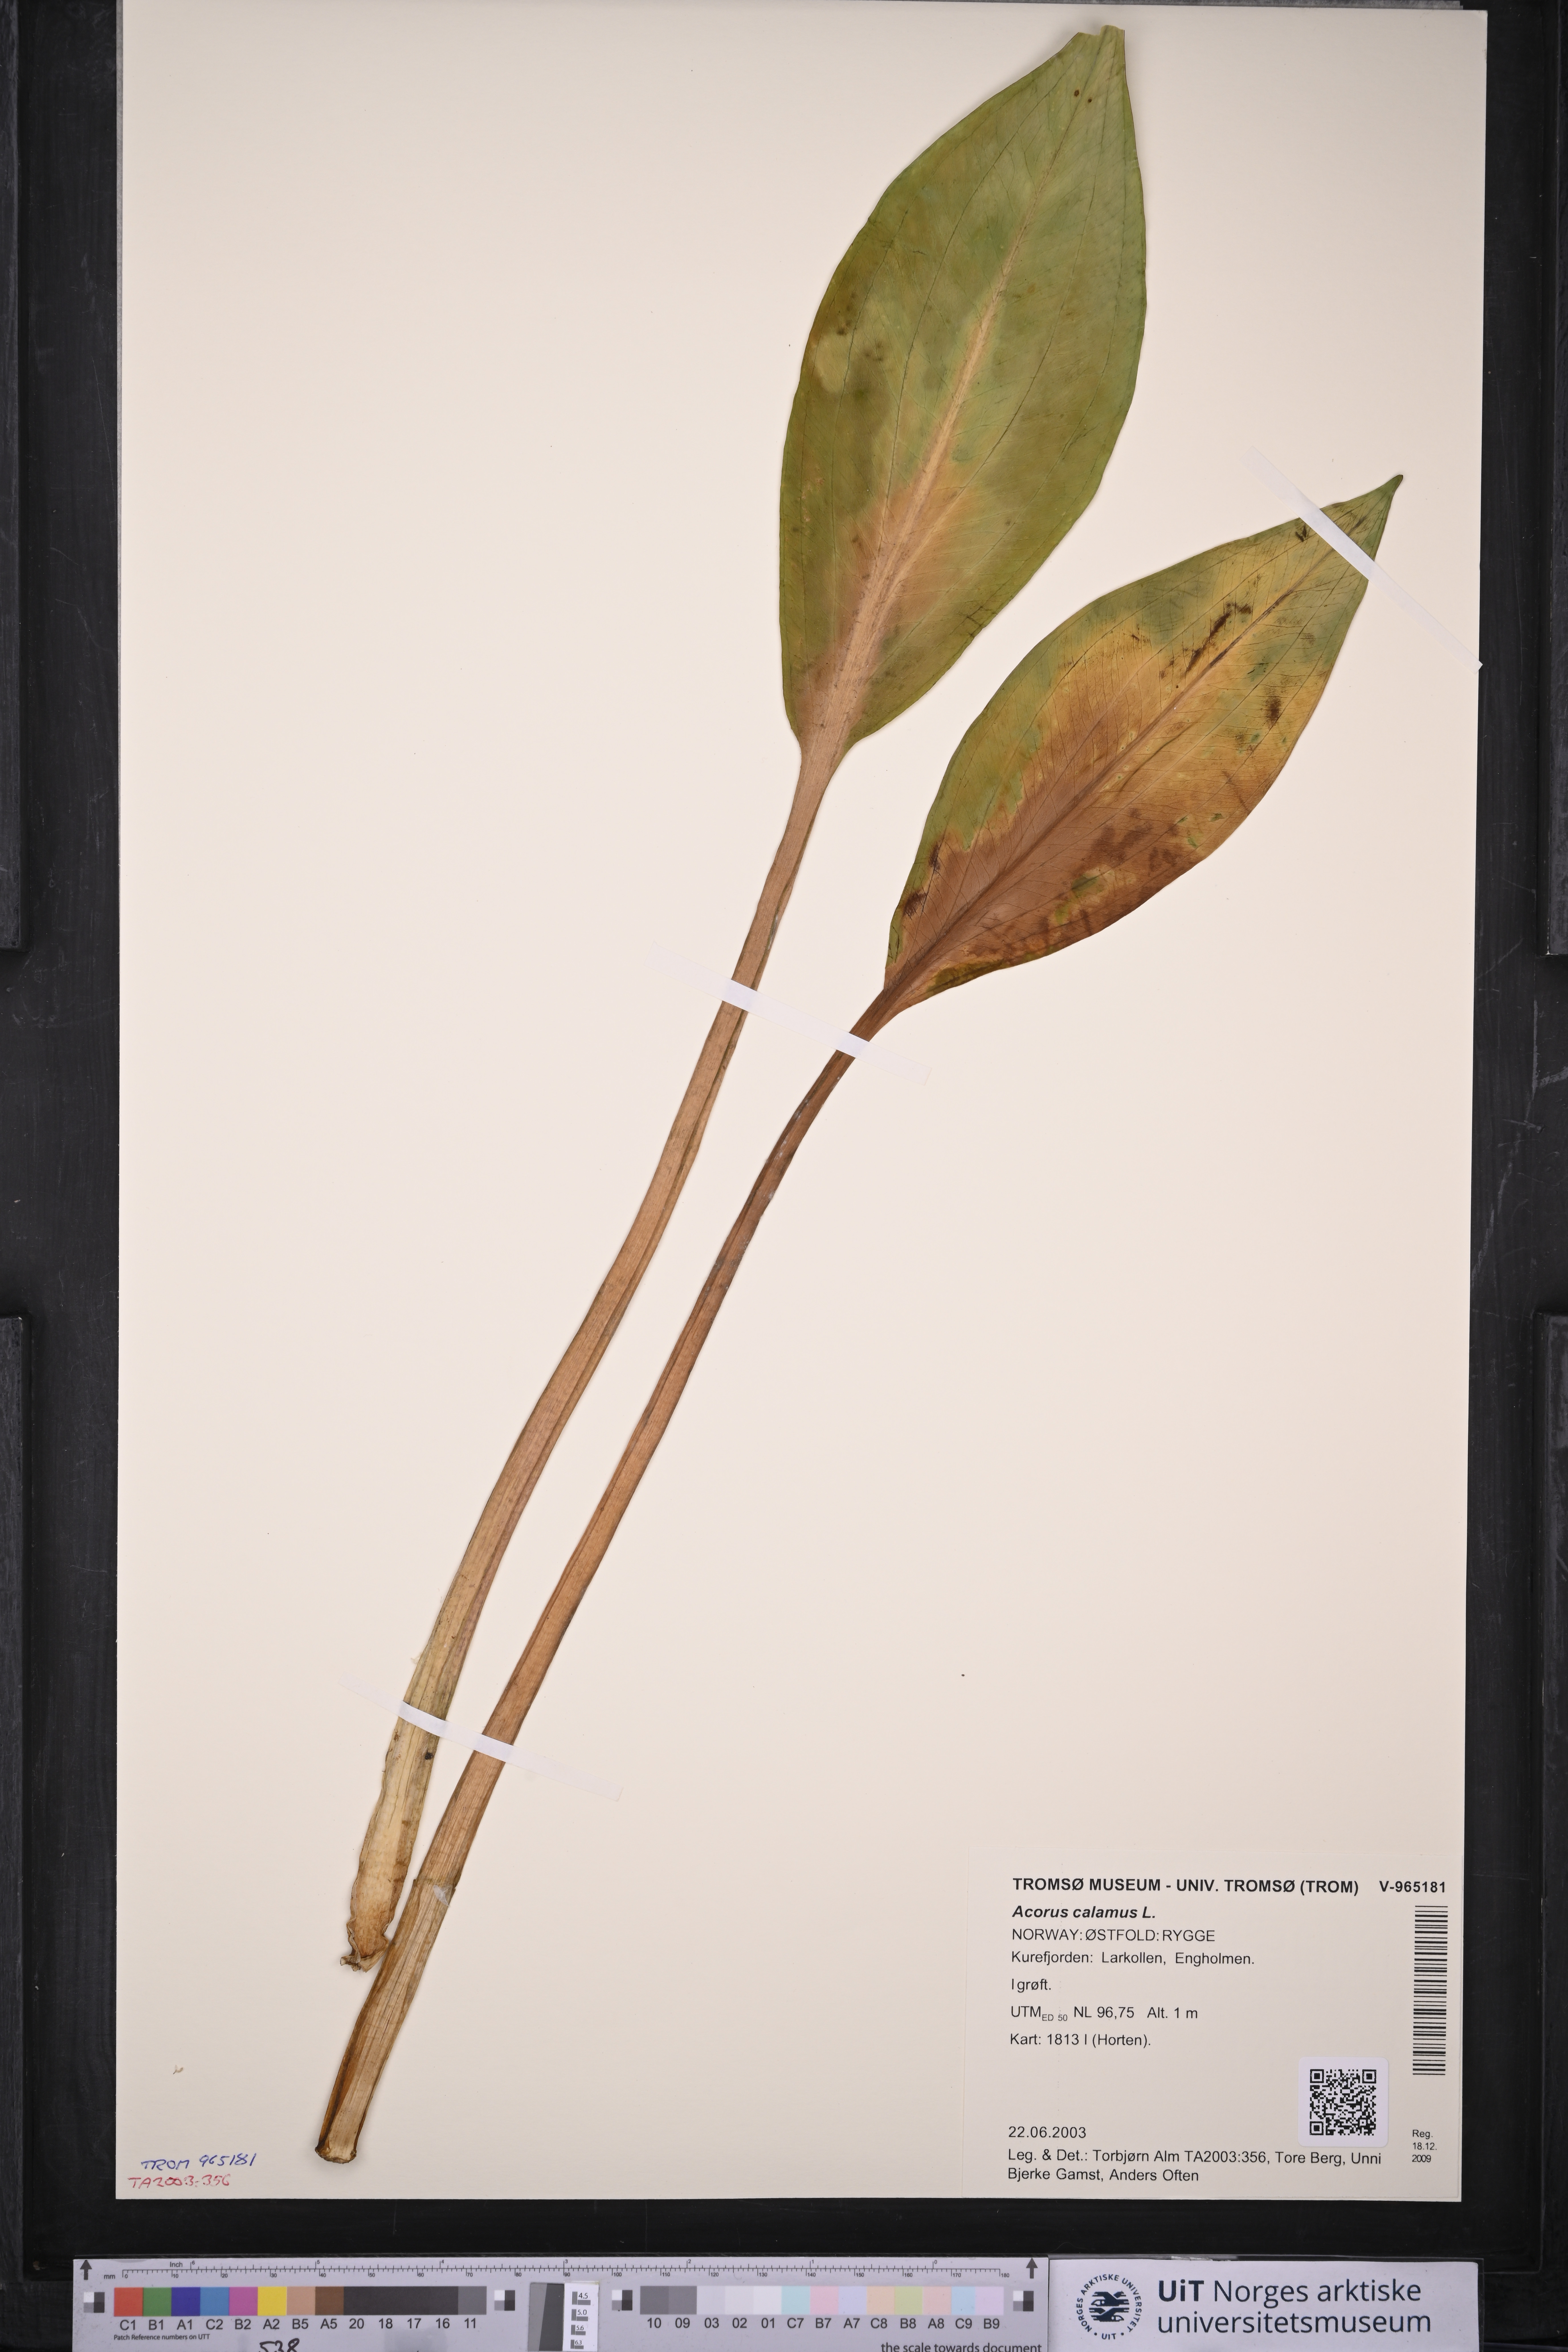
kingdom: Plantae
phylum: Tracheophyta
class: Liliopsida
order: Acorales
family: Acoraceae
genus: Acorus
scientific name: Acorus calamus
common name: Sweet-flag
